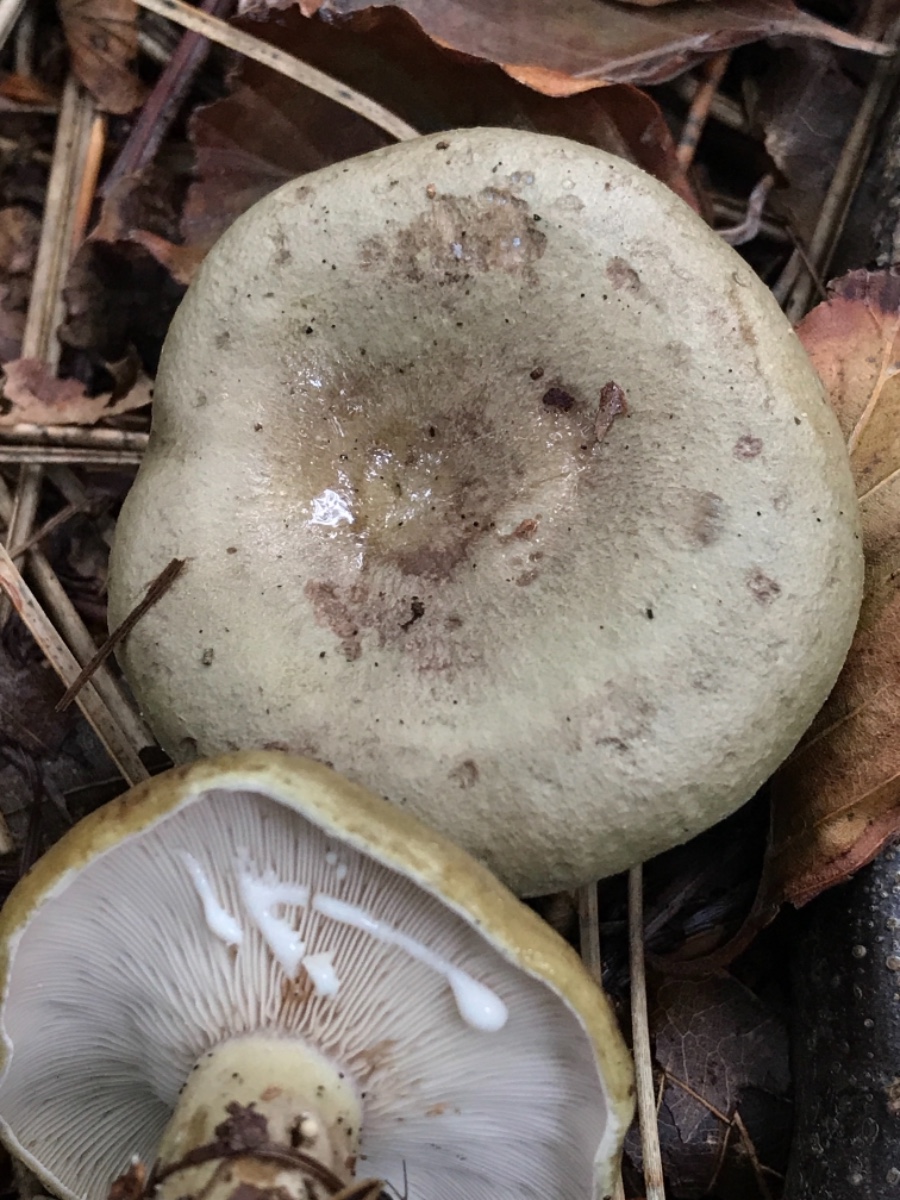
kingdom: Fungi
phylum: Basidiomycota
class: Agaricomycetes
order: Russulales
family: Russulaceae
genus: Lactarius
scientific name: Lactarius blennius
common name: dråbeplettet mælkehat
